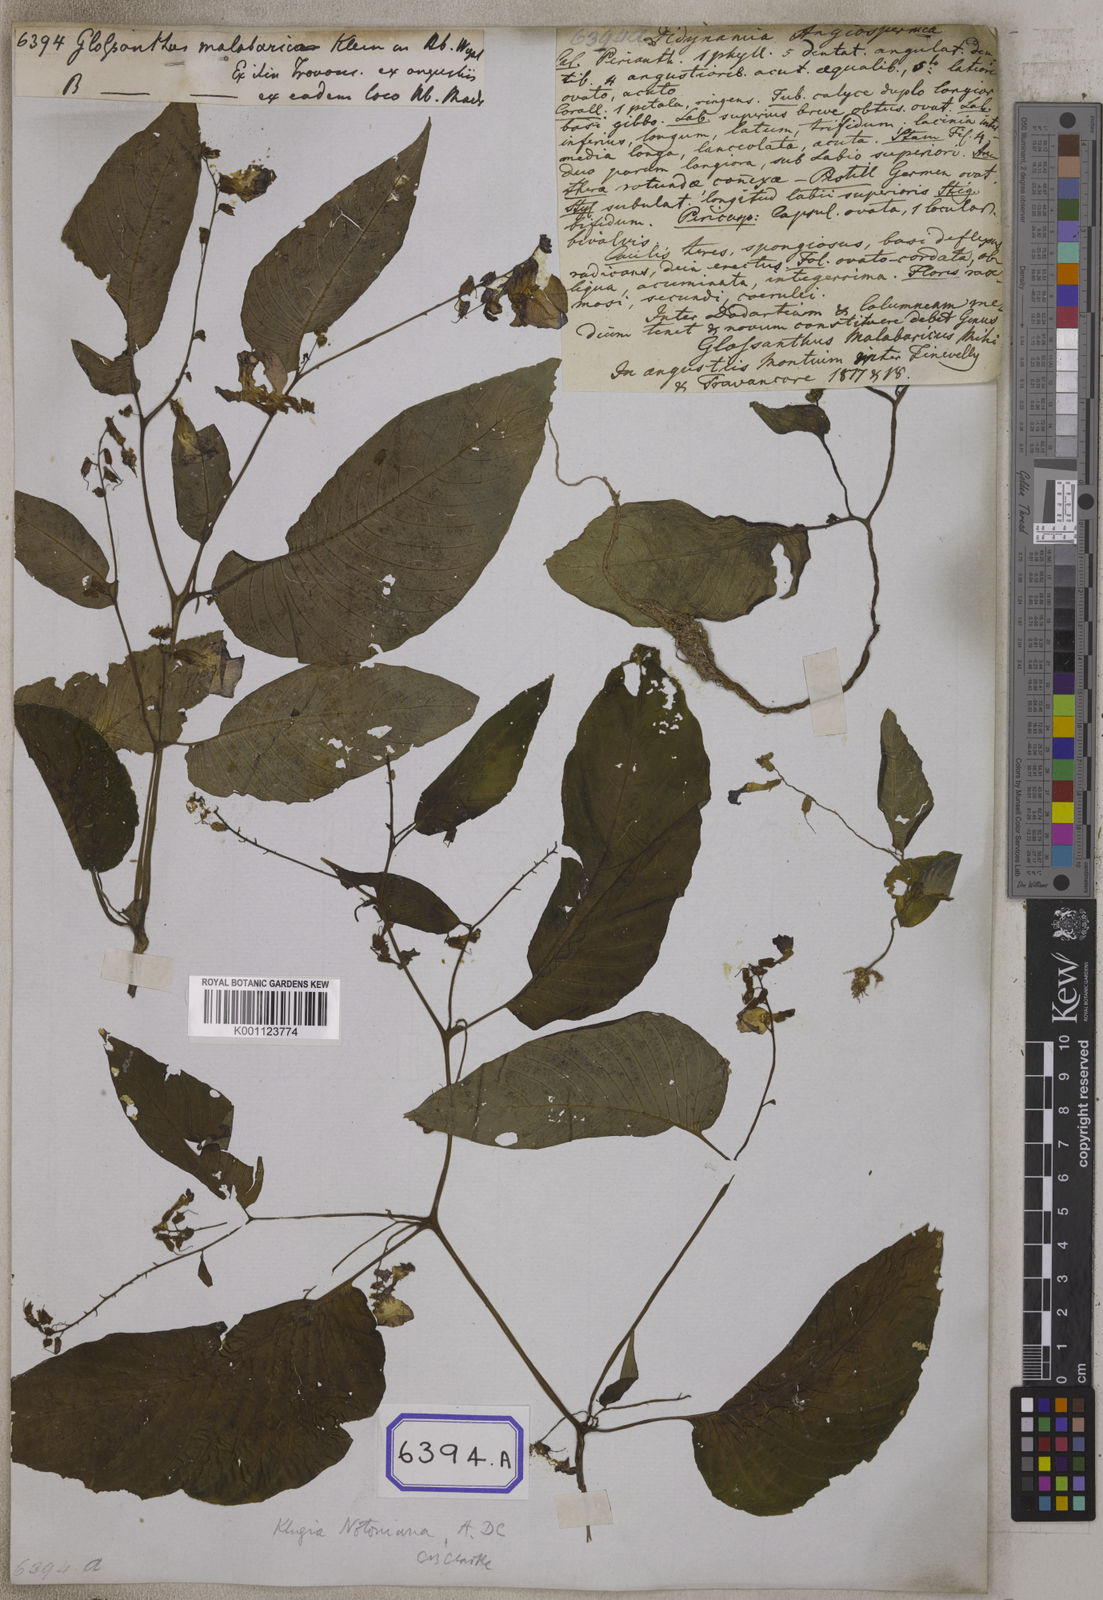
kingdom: Plantae
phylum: Tracheophyta
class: Magnoliopsida
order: Lamiales
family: Gesneriaceae
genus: Rhynchoglossum
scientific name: Rhynchoglossum notonianum
